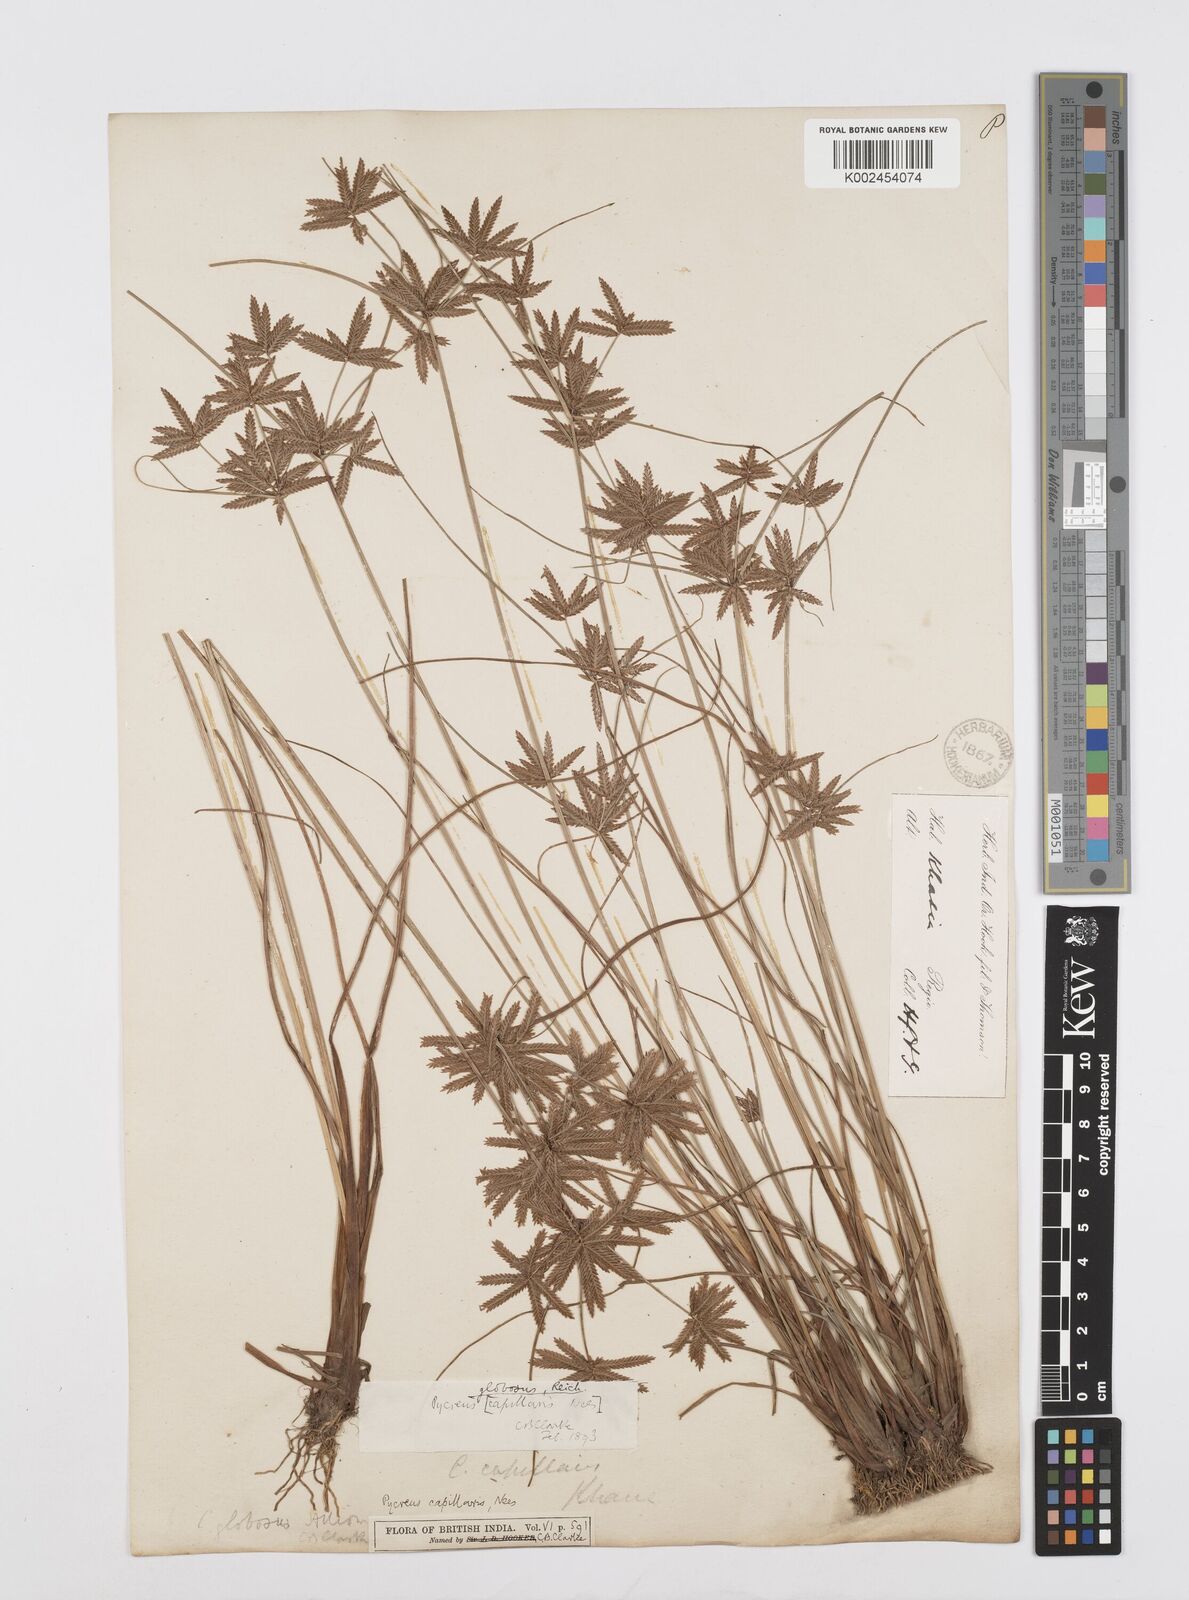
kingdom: Plantae
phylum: Tracheophyta
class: Liliopsida
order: Poales
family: Cyperaceae
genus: Cyperus
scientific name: Cyperus flavidus
